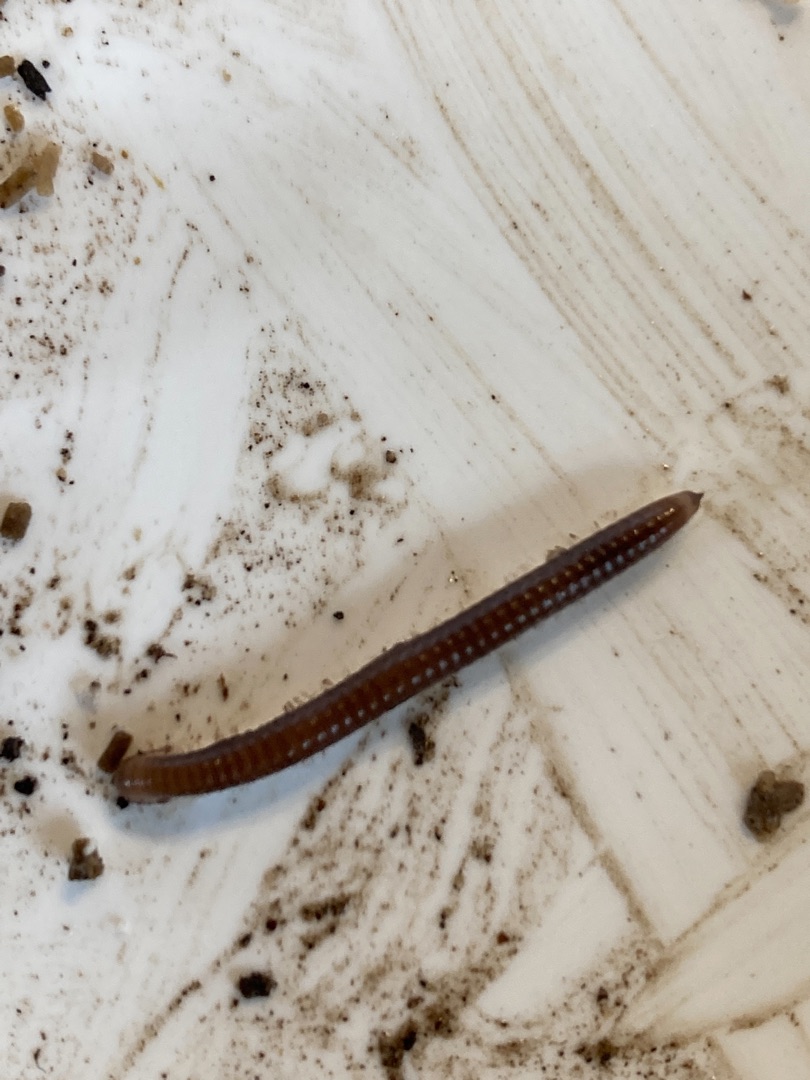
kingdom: Animalia
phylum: Arthropoda
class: Diplopoda
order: Julida
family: Julidae
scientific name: Julidae
